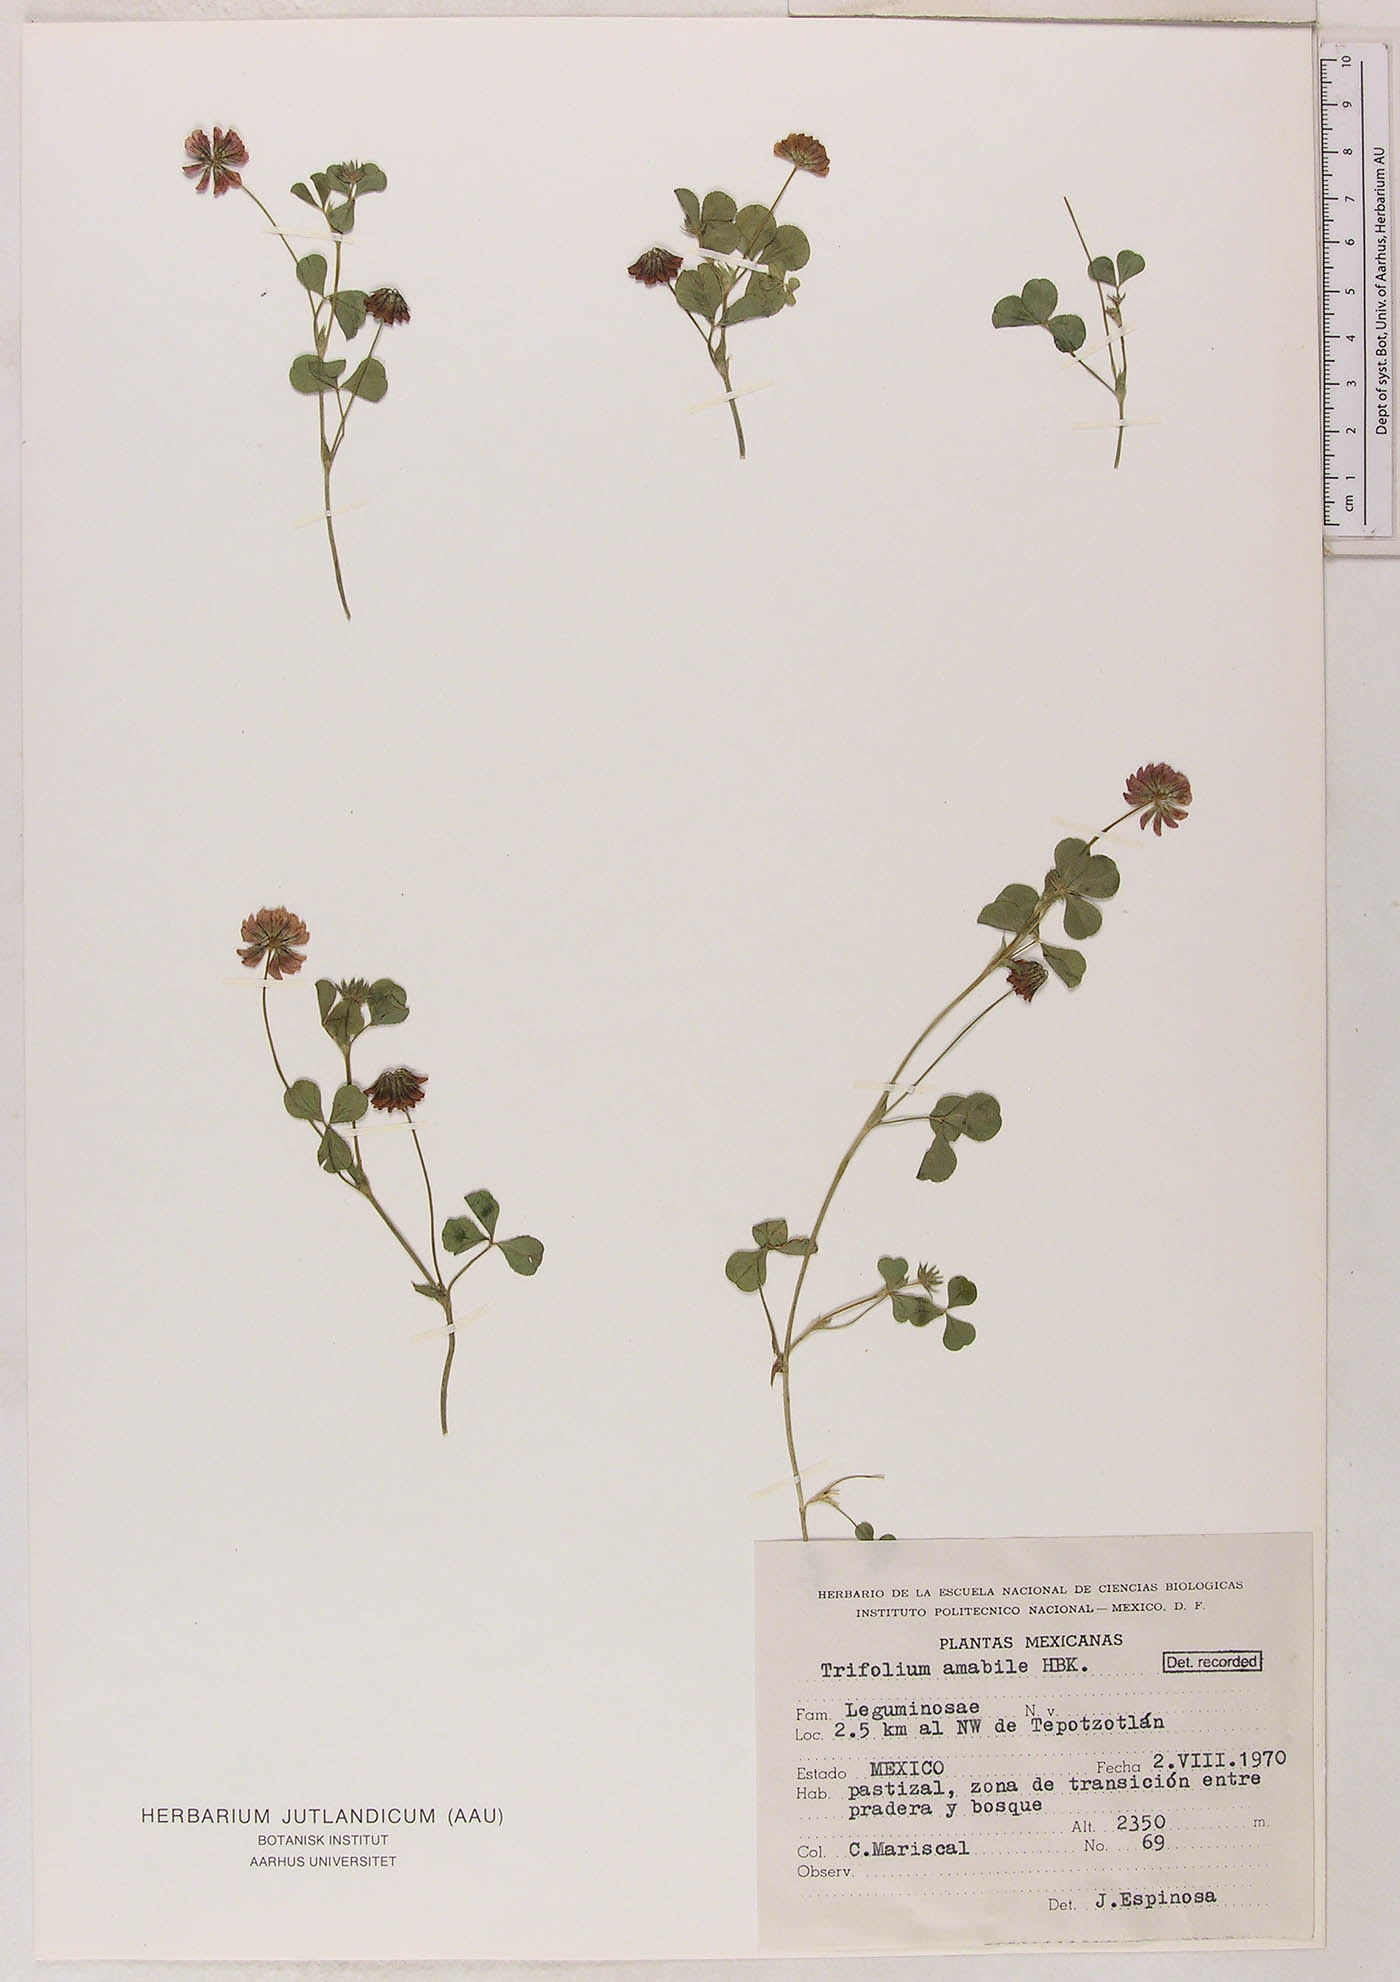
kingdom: Plantae
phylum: Tracheophyta
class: Magnoliopsida
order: Fabales
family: Fabaceae
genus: Trifolium
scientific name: Trifolium amabile
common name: Aztec clover
